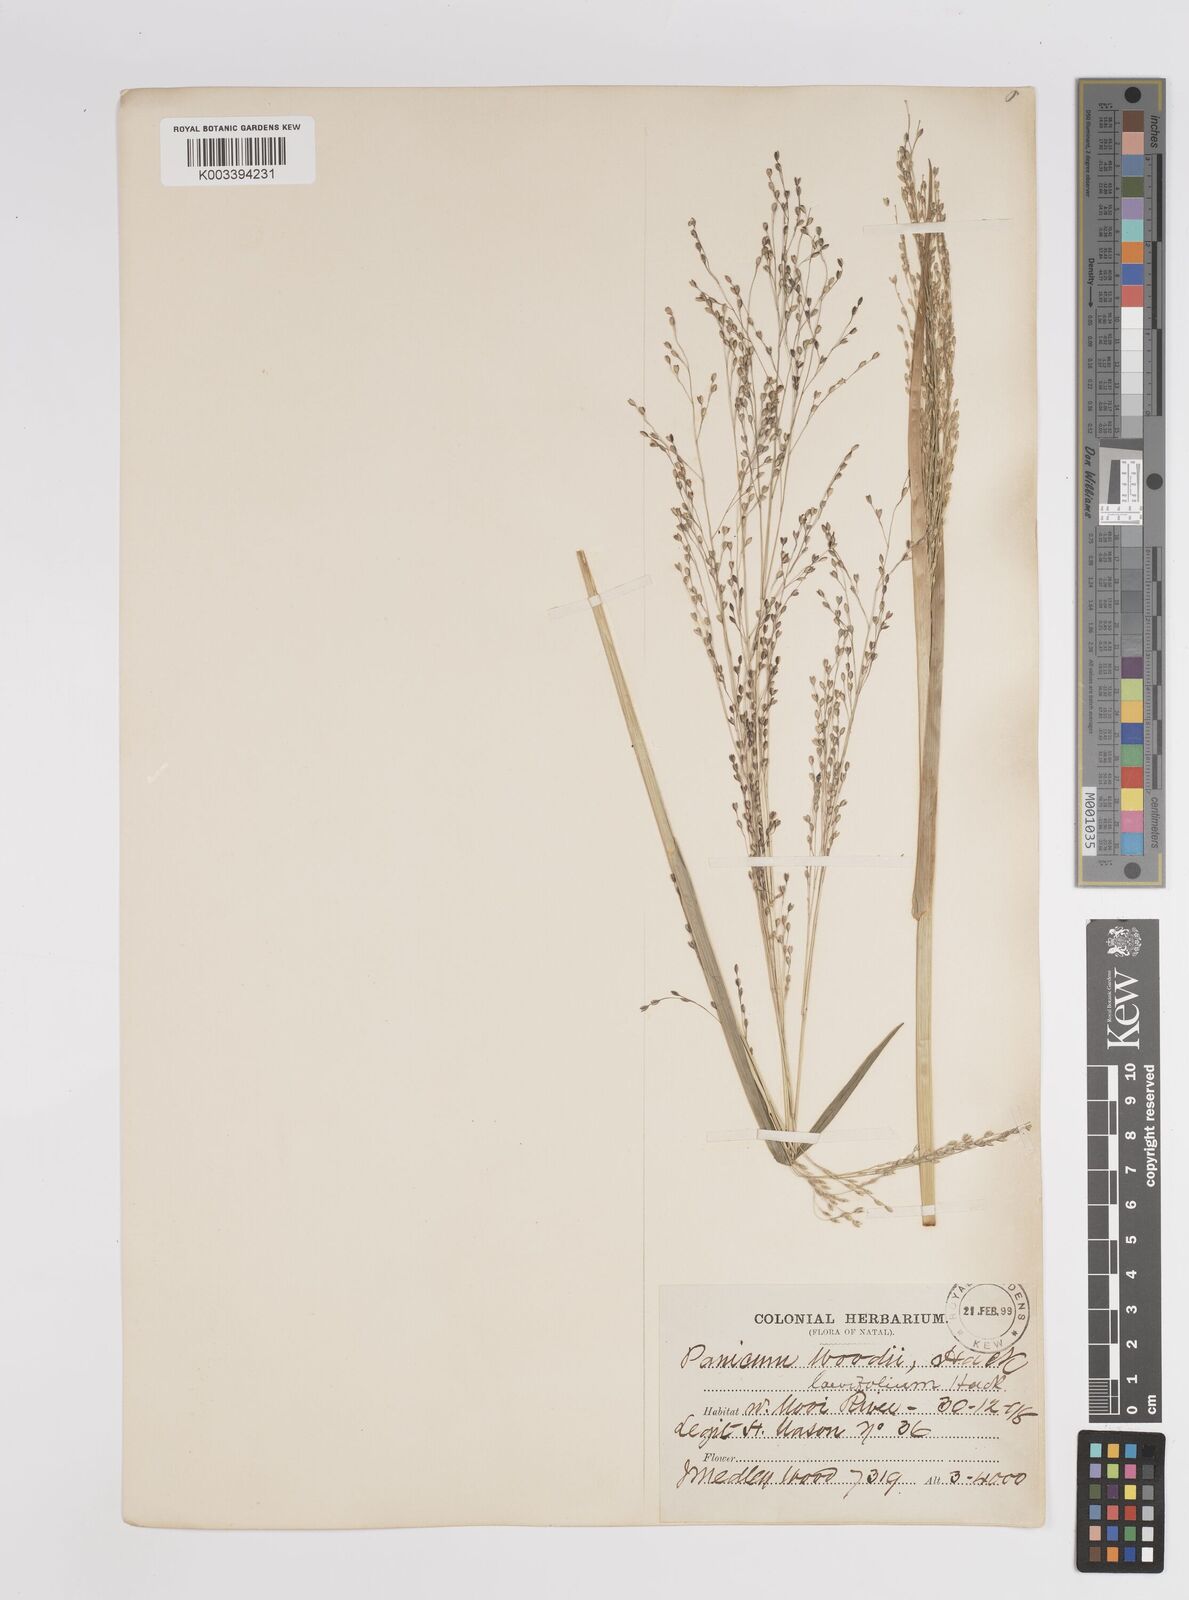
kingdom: Plantae
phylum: Tracheophyta
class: Liliopsida
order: Poales
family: Poaceae
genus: Panicum
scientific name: Panicum schinzii
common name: Sweet grass
